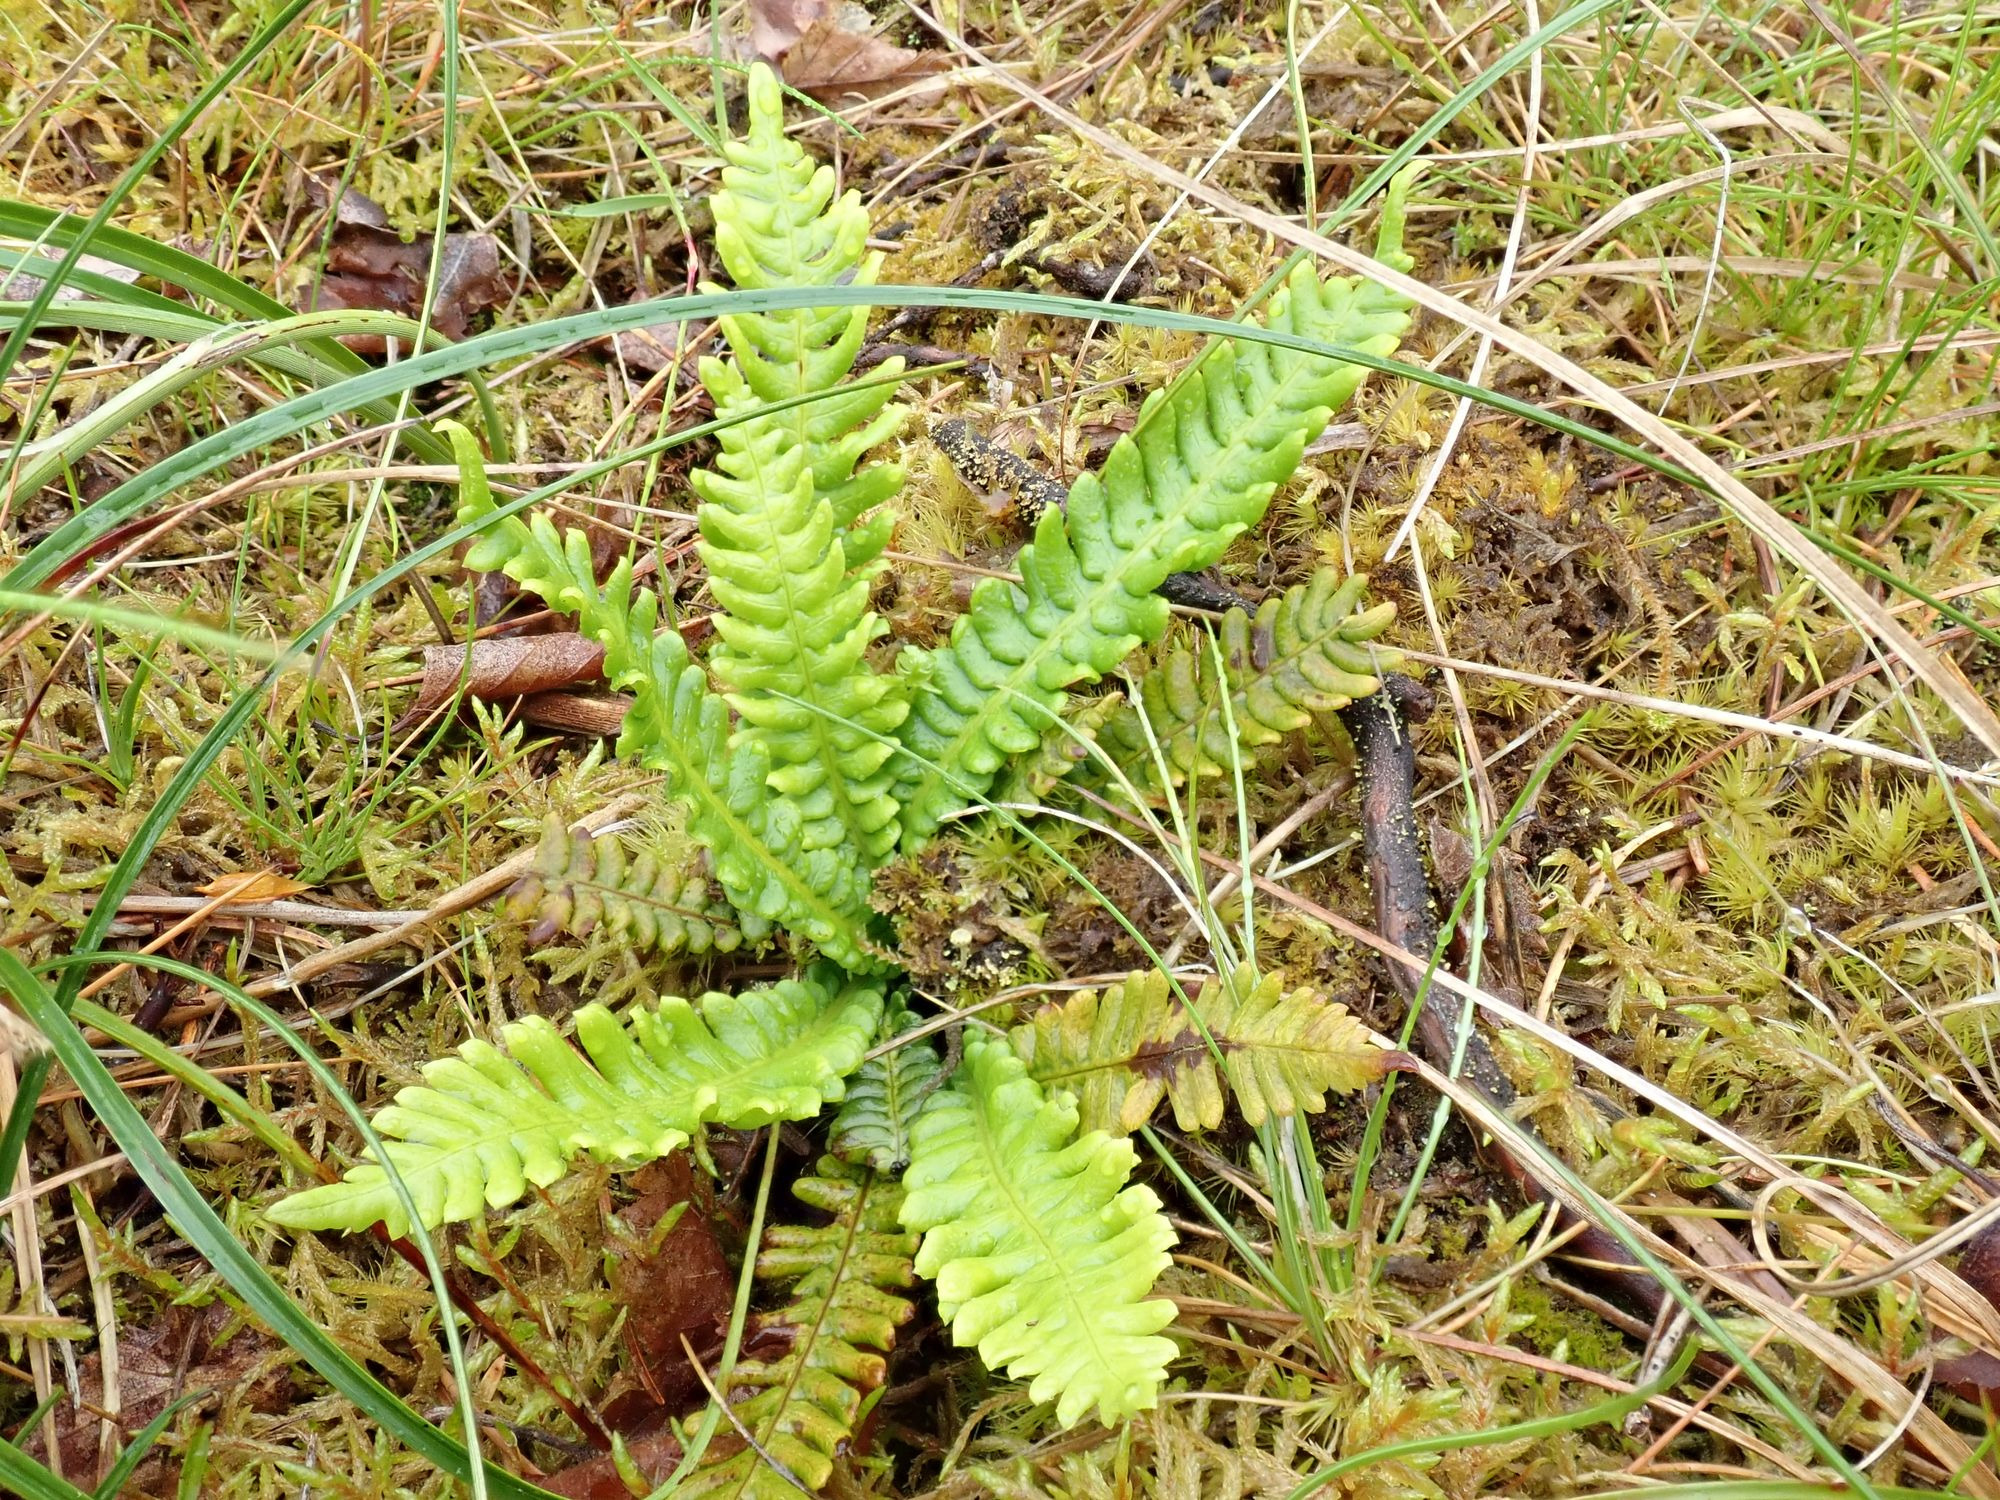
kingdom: Plantae
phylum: Tracheophyta
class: Polypodiopsida
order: Polypodiales
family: Blechnaceae
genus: Struthiopteris
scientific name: Struthiopteris spicant
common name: Kambregne
